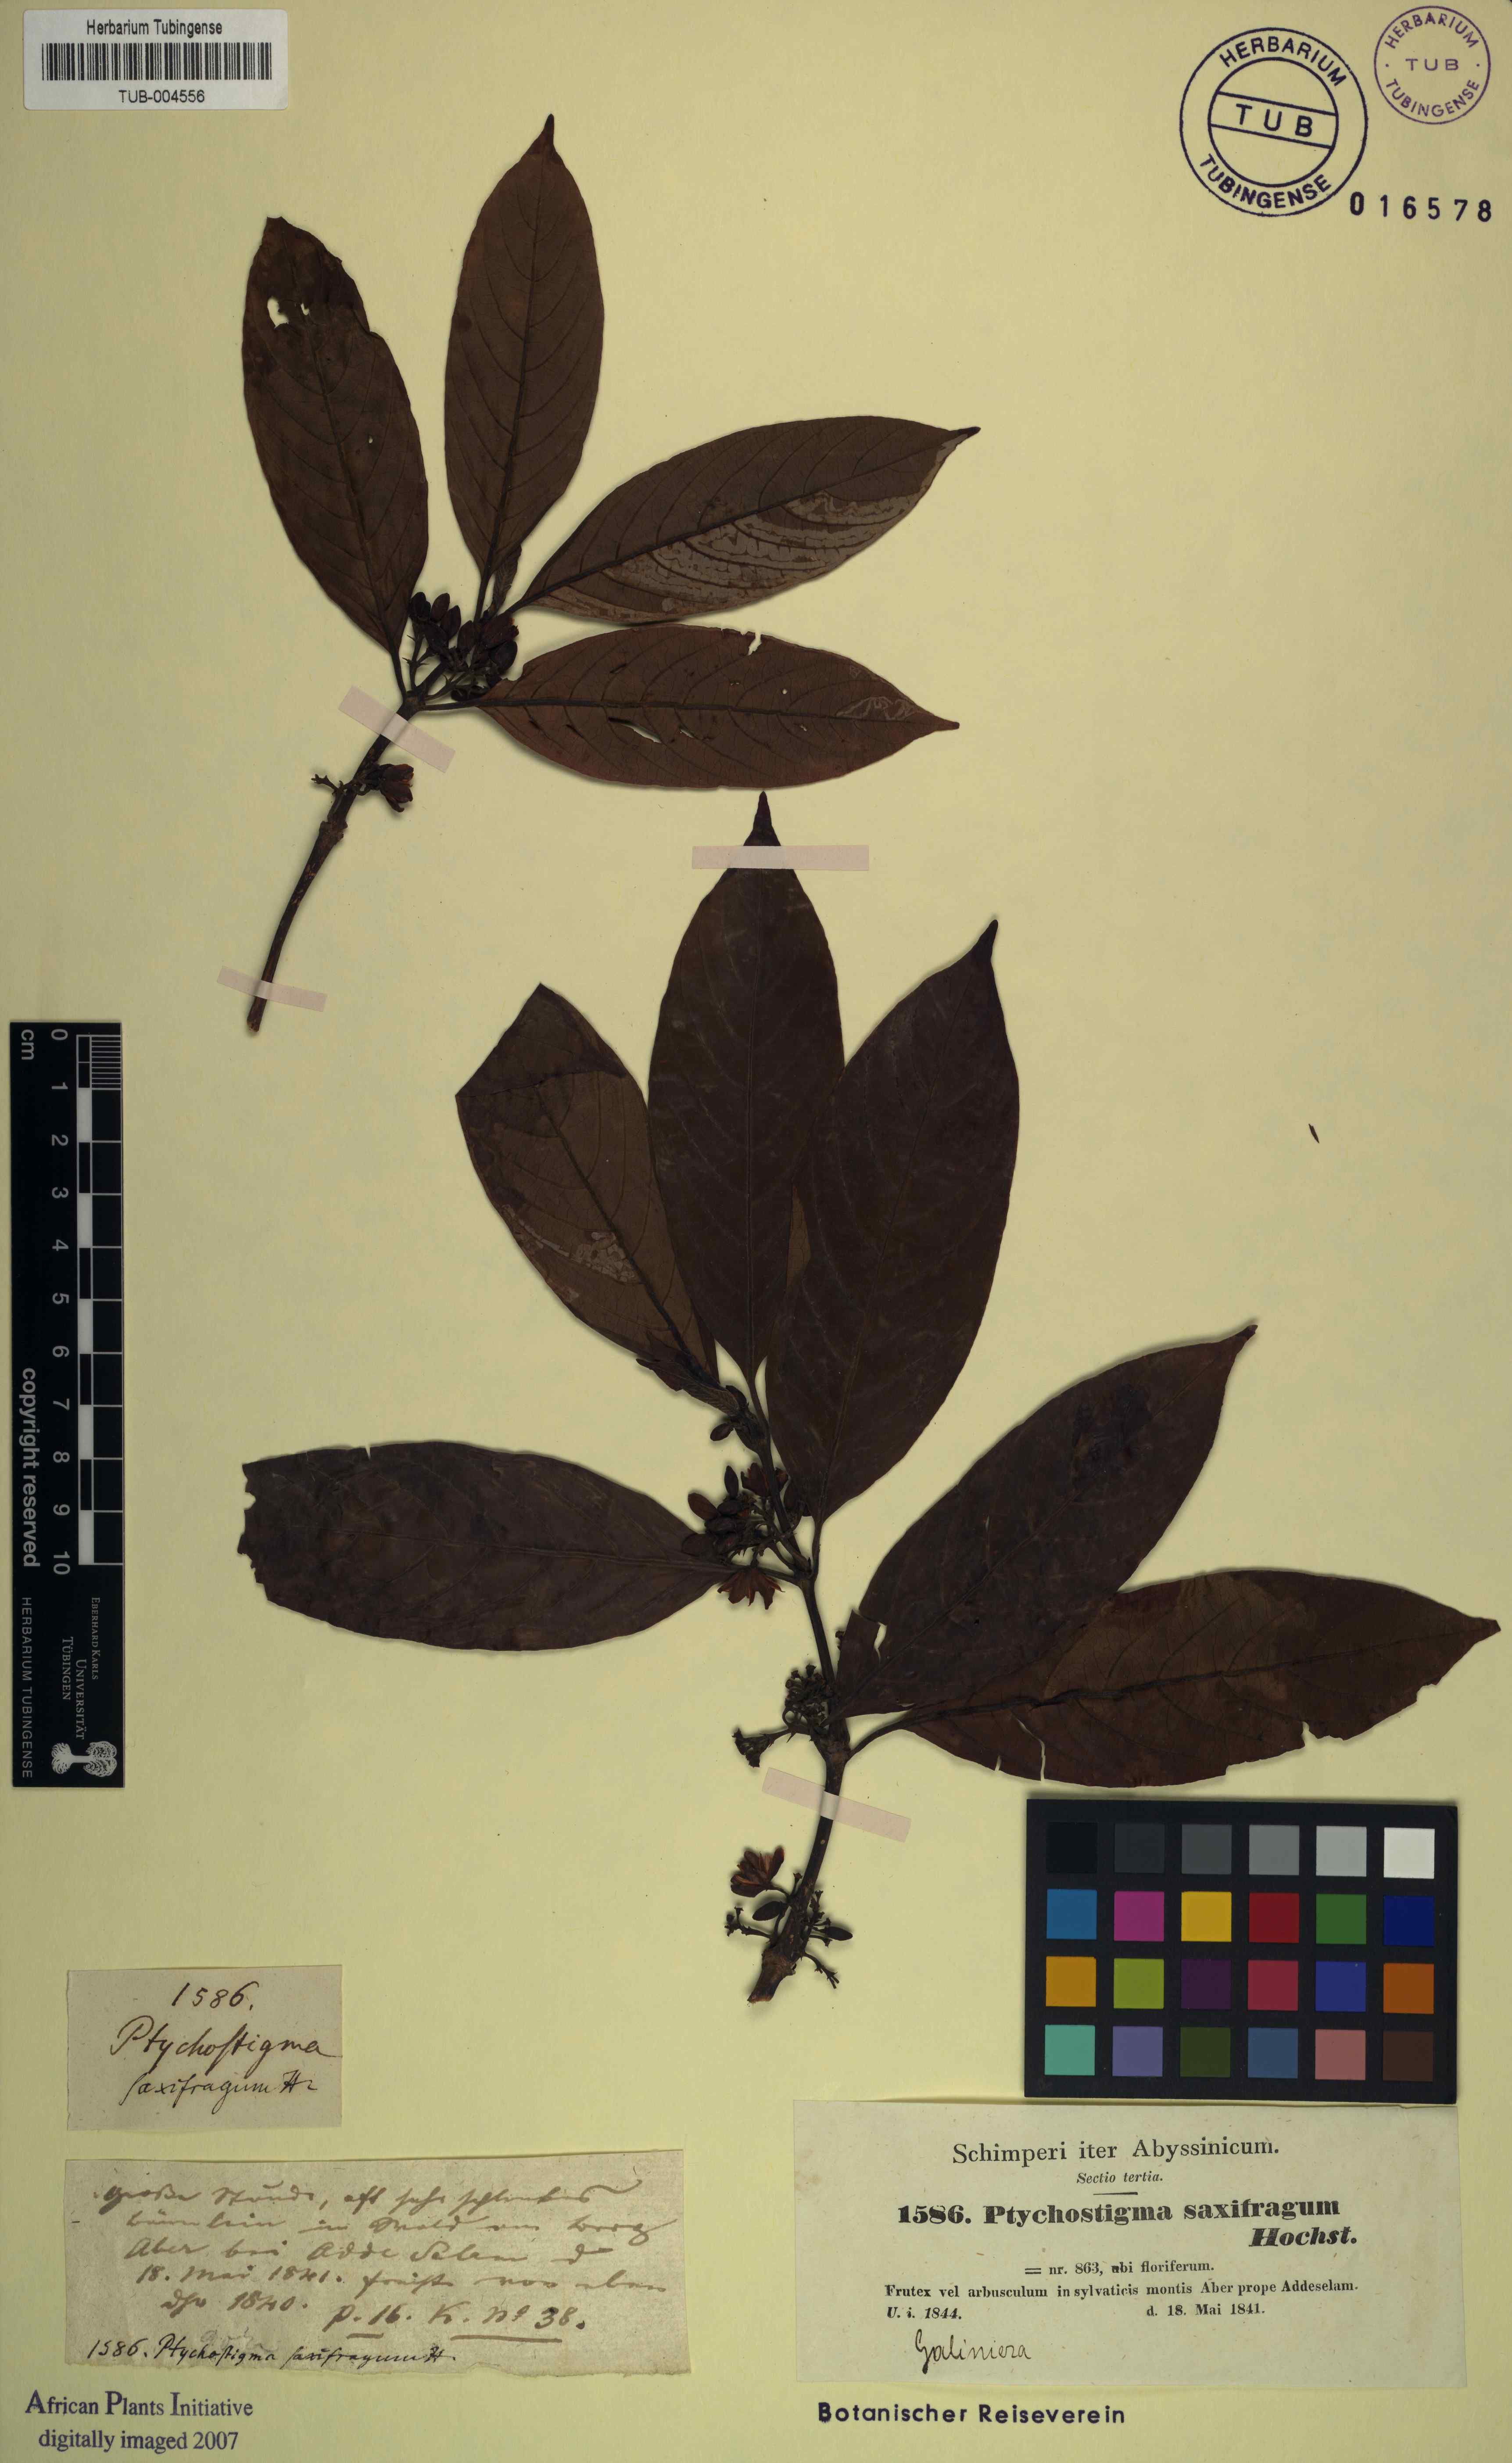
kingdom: Plantae
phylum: Tracheophyta
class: Magnoliopsida
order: Gentianales
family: Rubiaceae
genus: Galiniera
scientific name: Galiniera saxifraga
